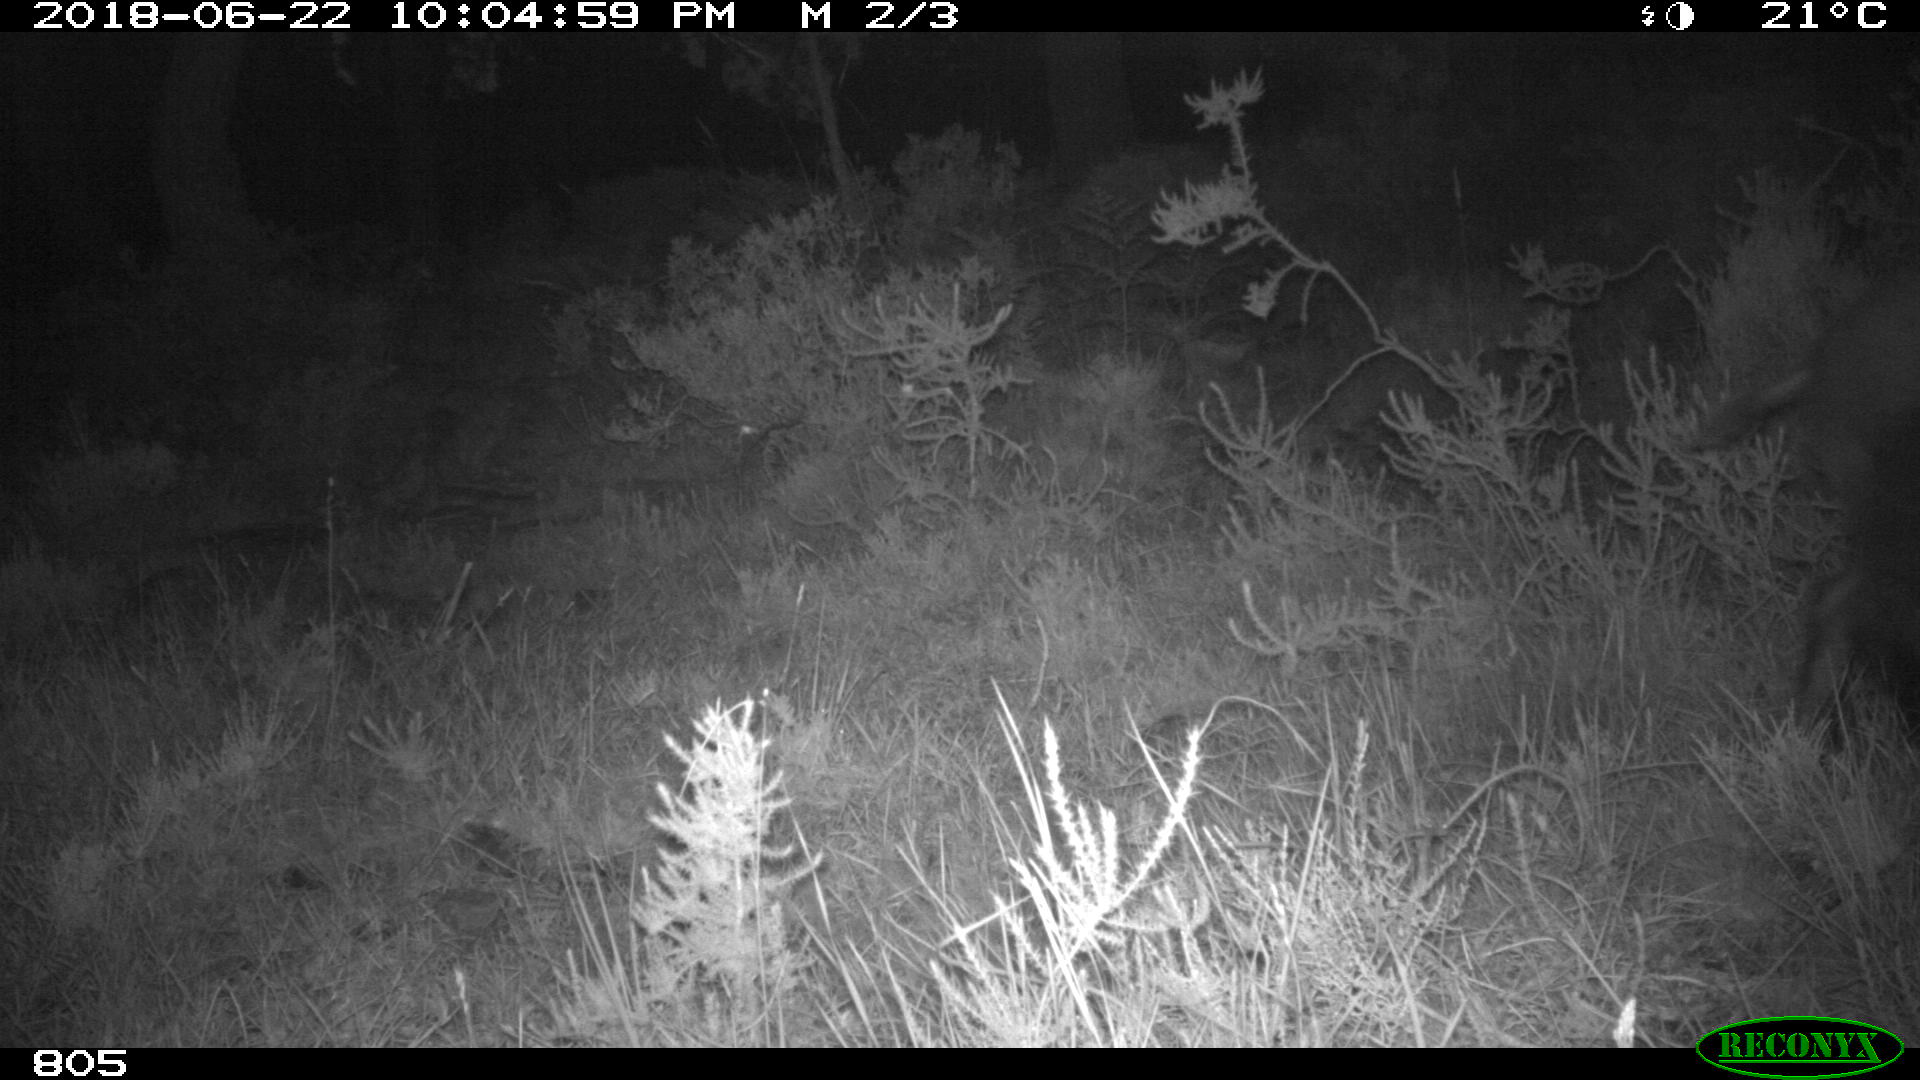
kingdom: Animalia
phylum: Chordata
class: Mammalia
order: Artiodactyla
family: Suidae
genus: Sus
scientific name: Sus scrofa
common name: Wild boar
